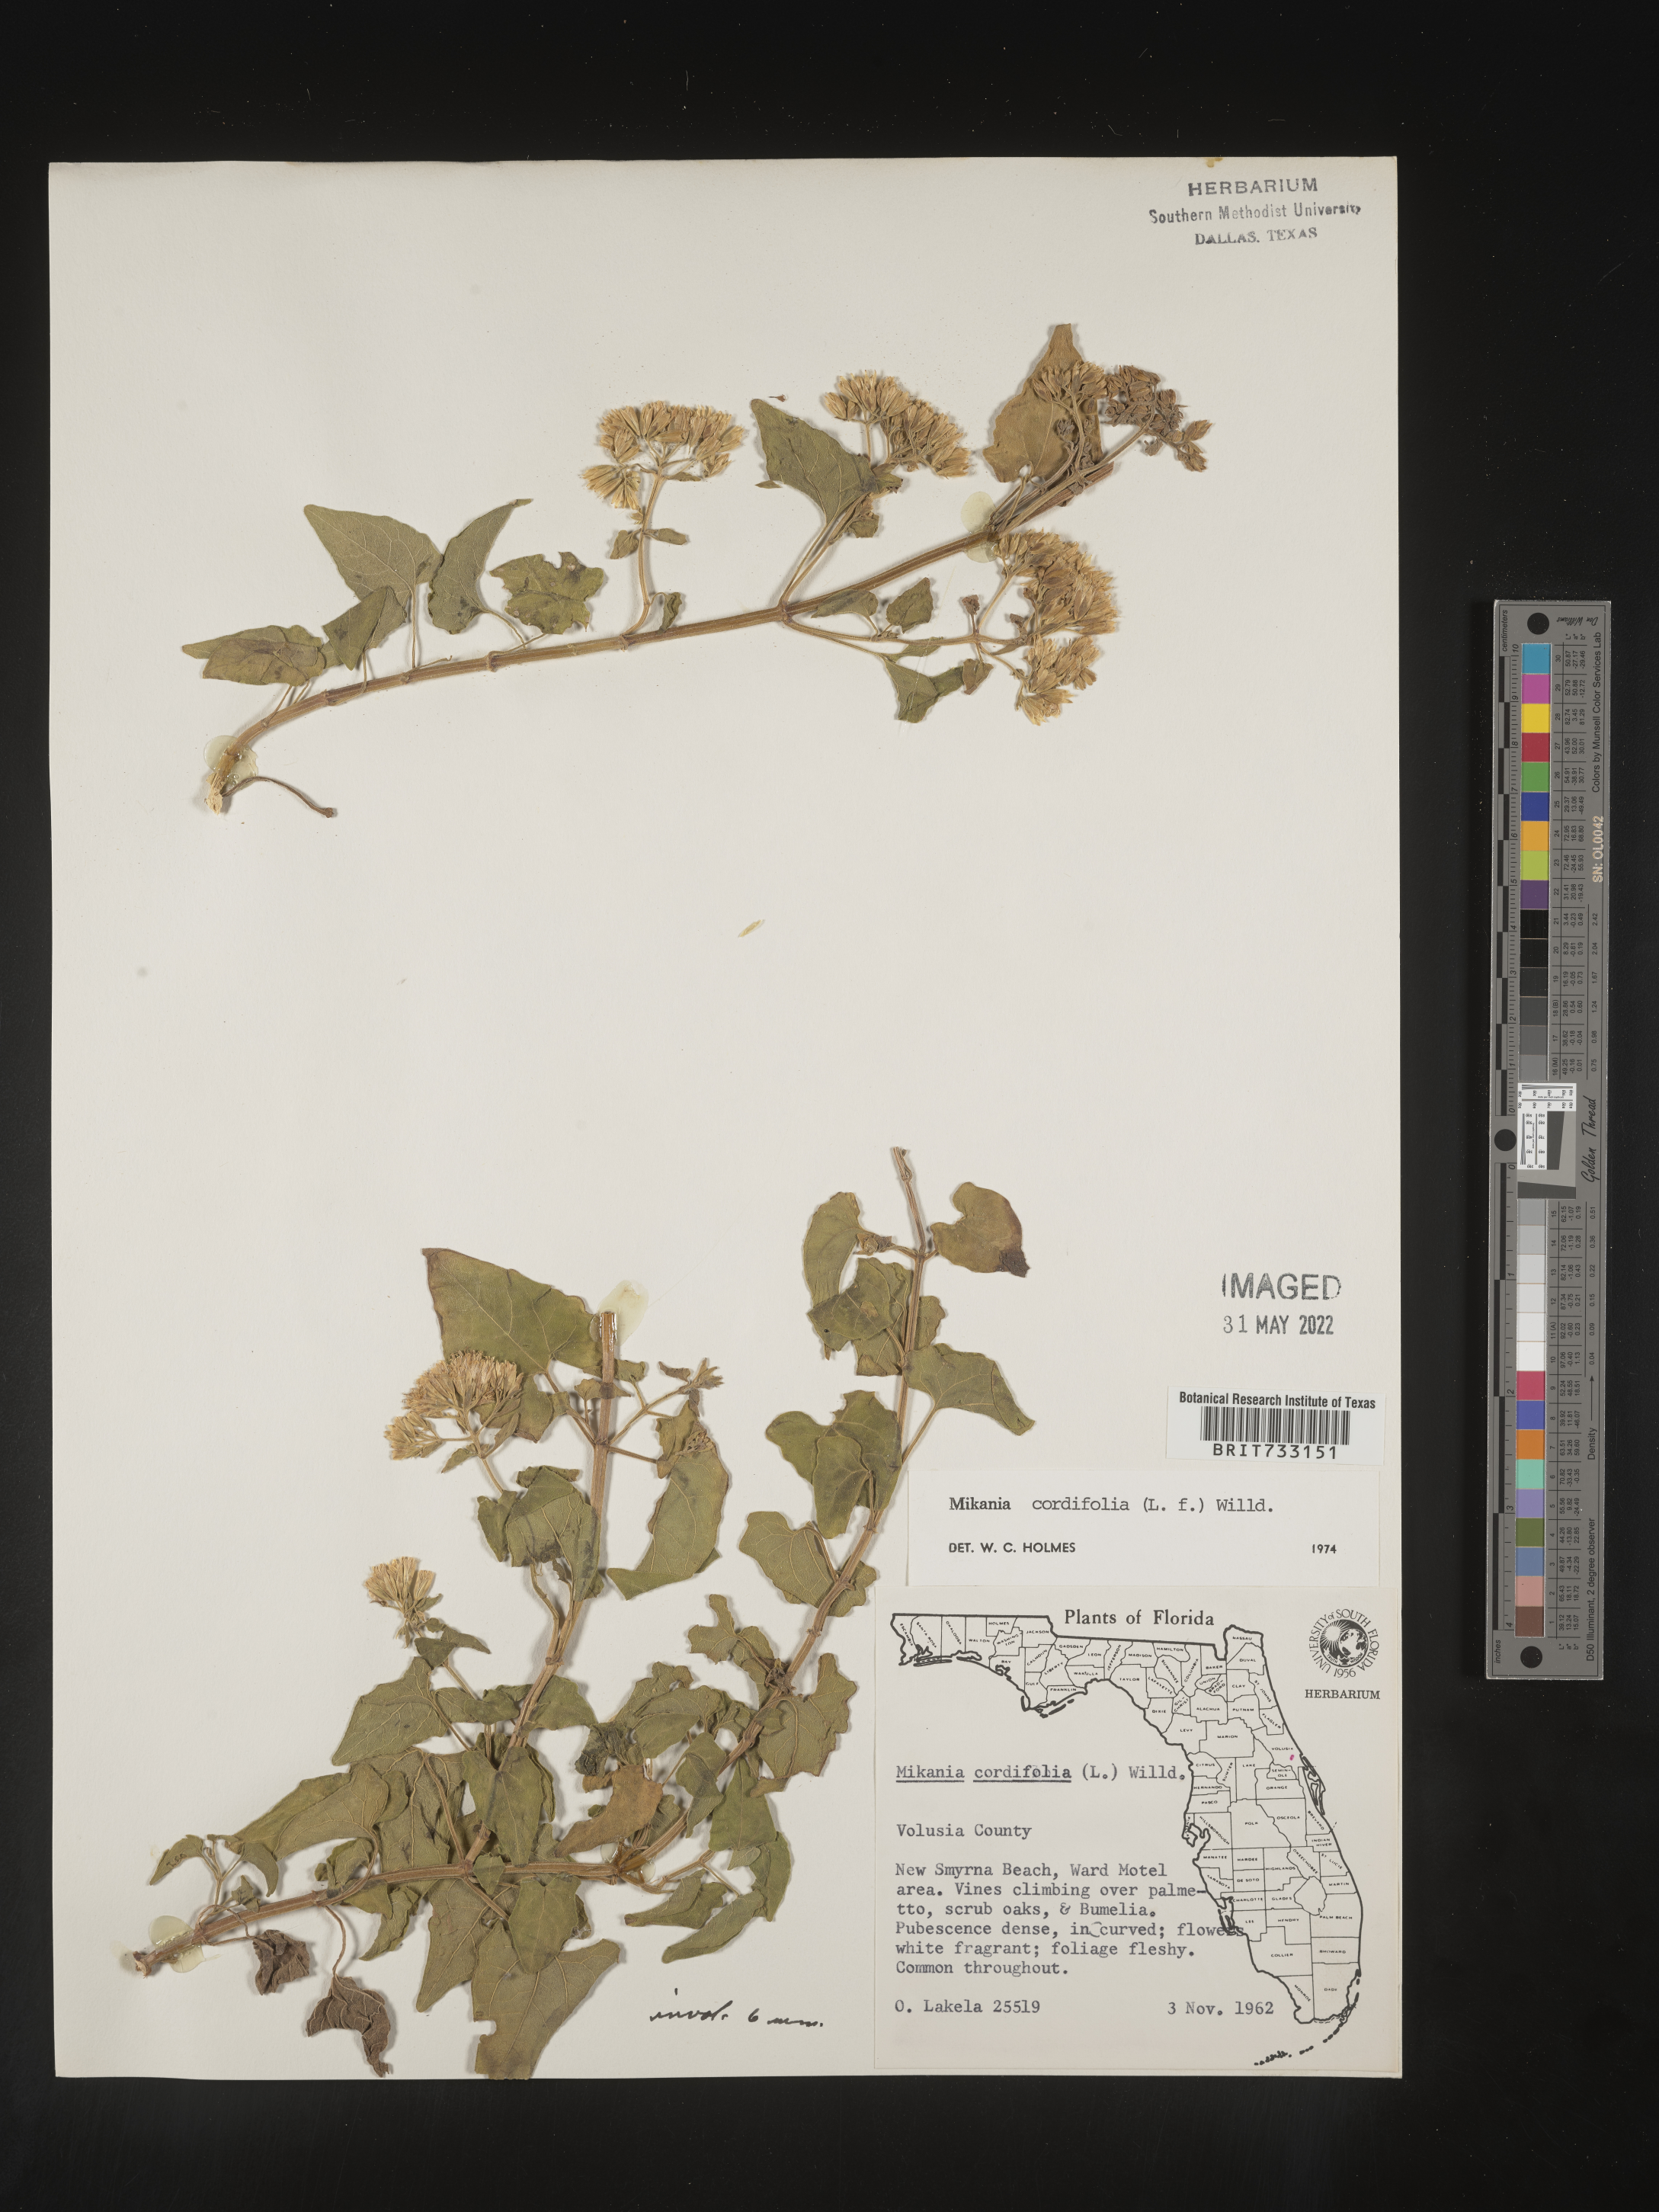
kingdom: Plantae
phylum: Tracheophyta
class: Magnoliopsida
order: Asterales
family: Asteraceae
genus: Mikania
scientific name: Mikania
